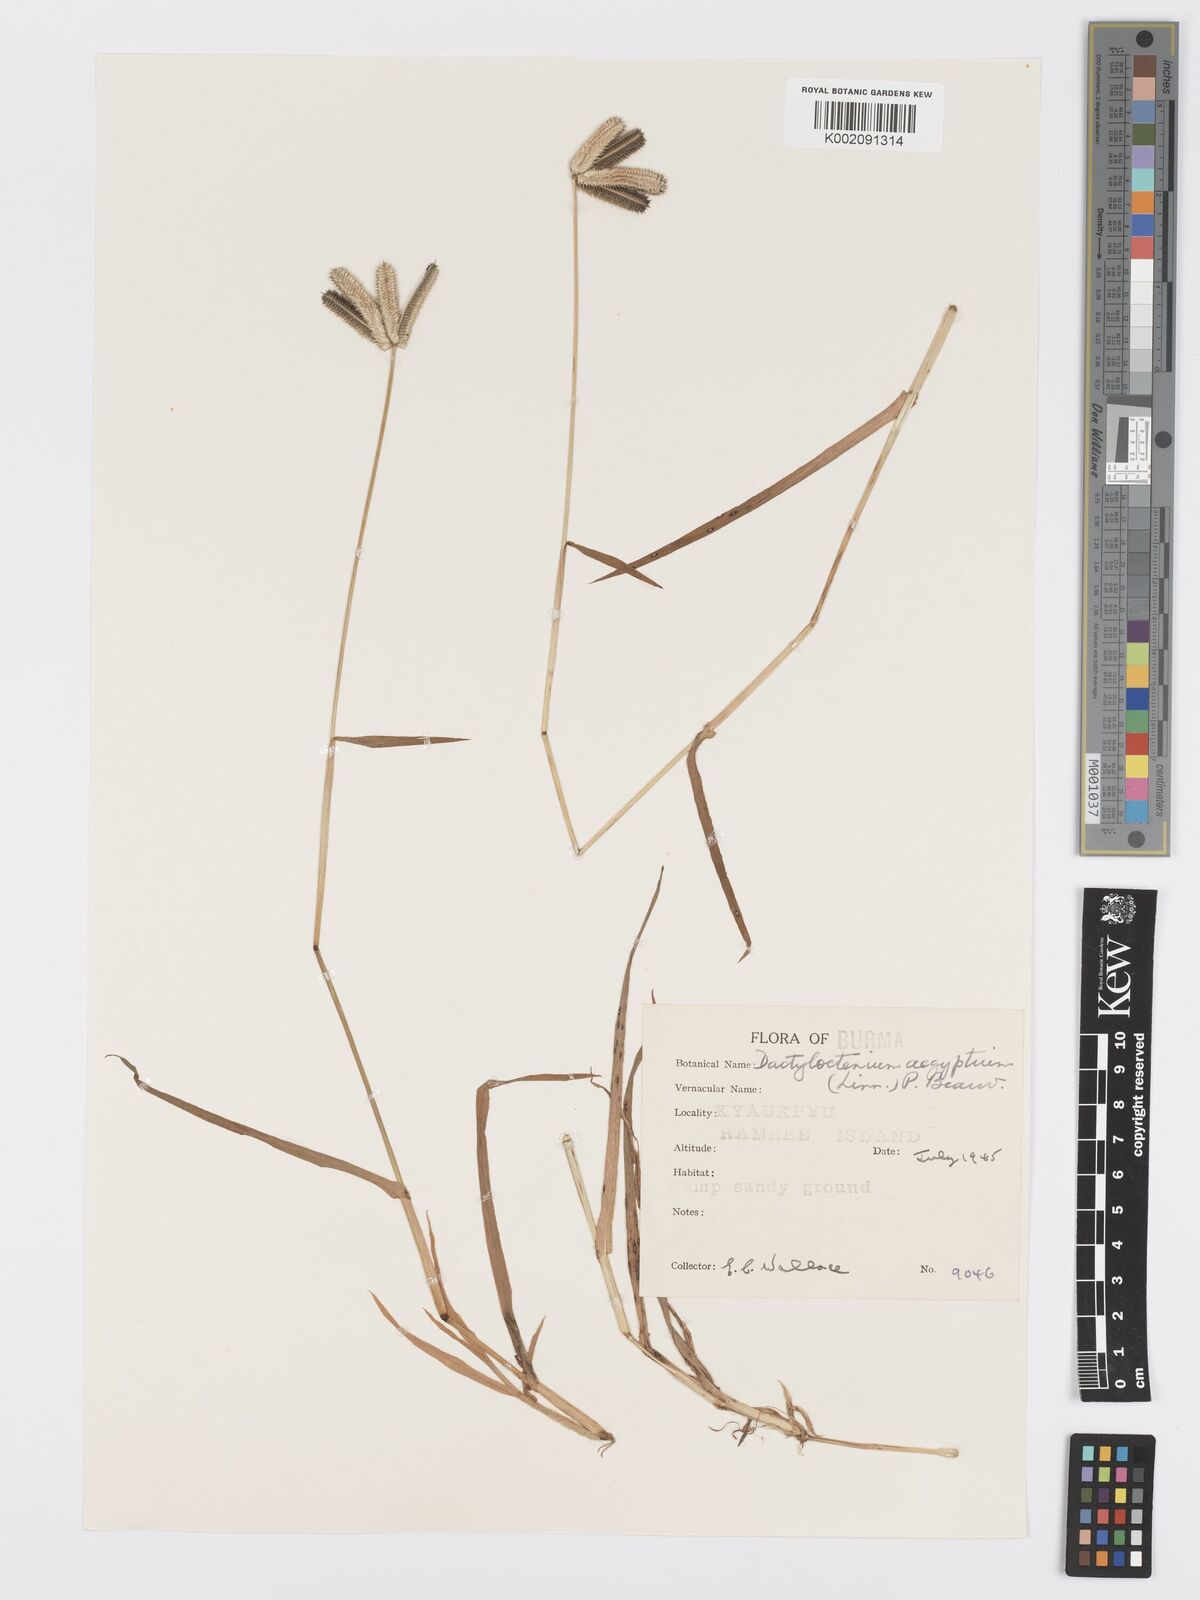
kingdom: Plantae
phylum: Tracheophyta
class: Liliopsida
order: Poales
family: Poaceae
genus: Dactyloctenium
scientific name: Dactyloctenium aegyptium
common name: Egyptian grass
